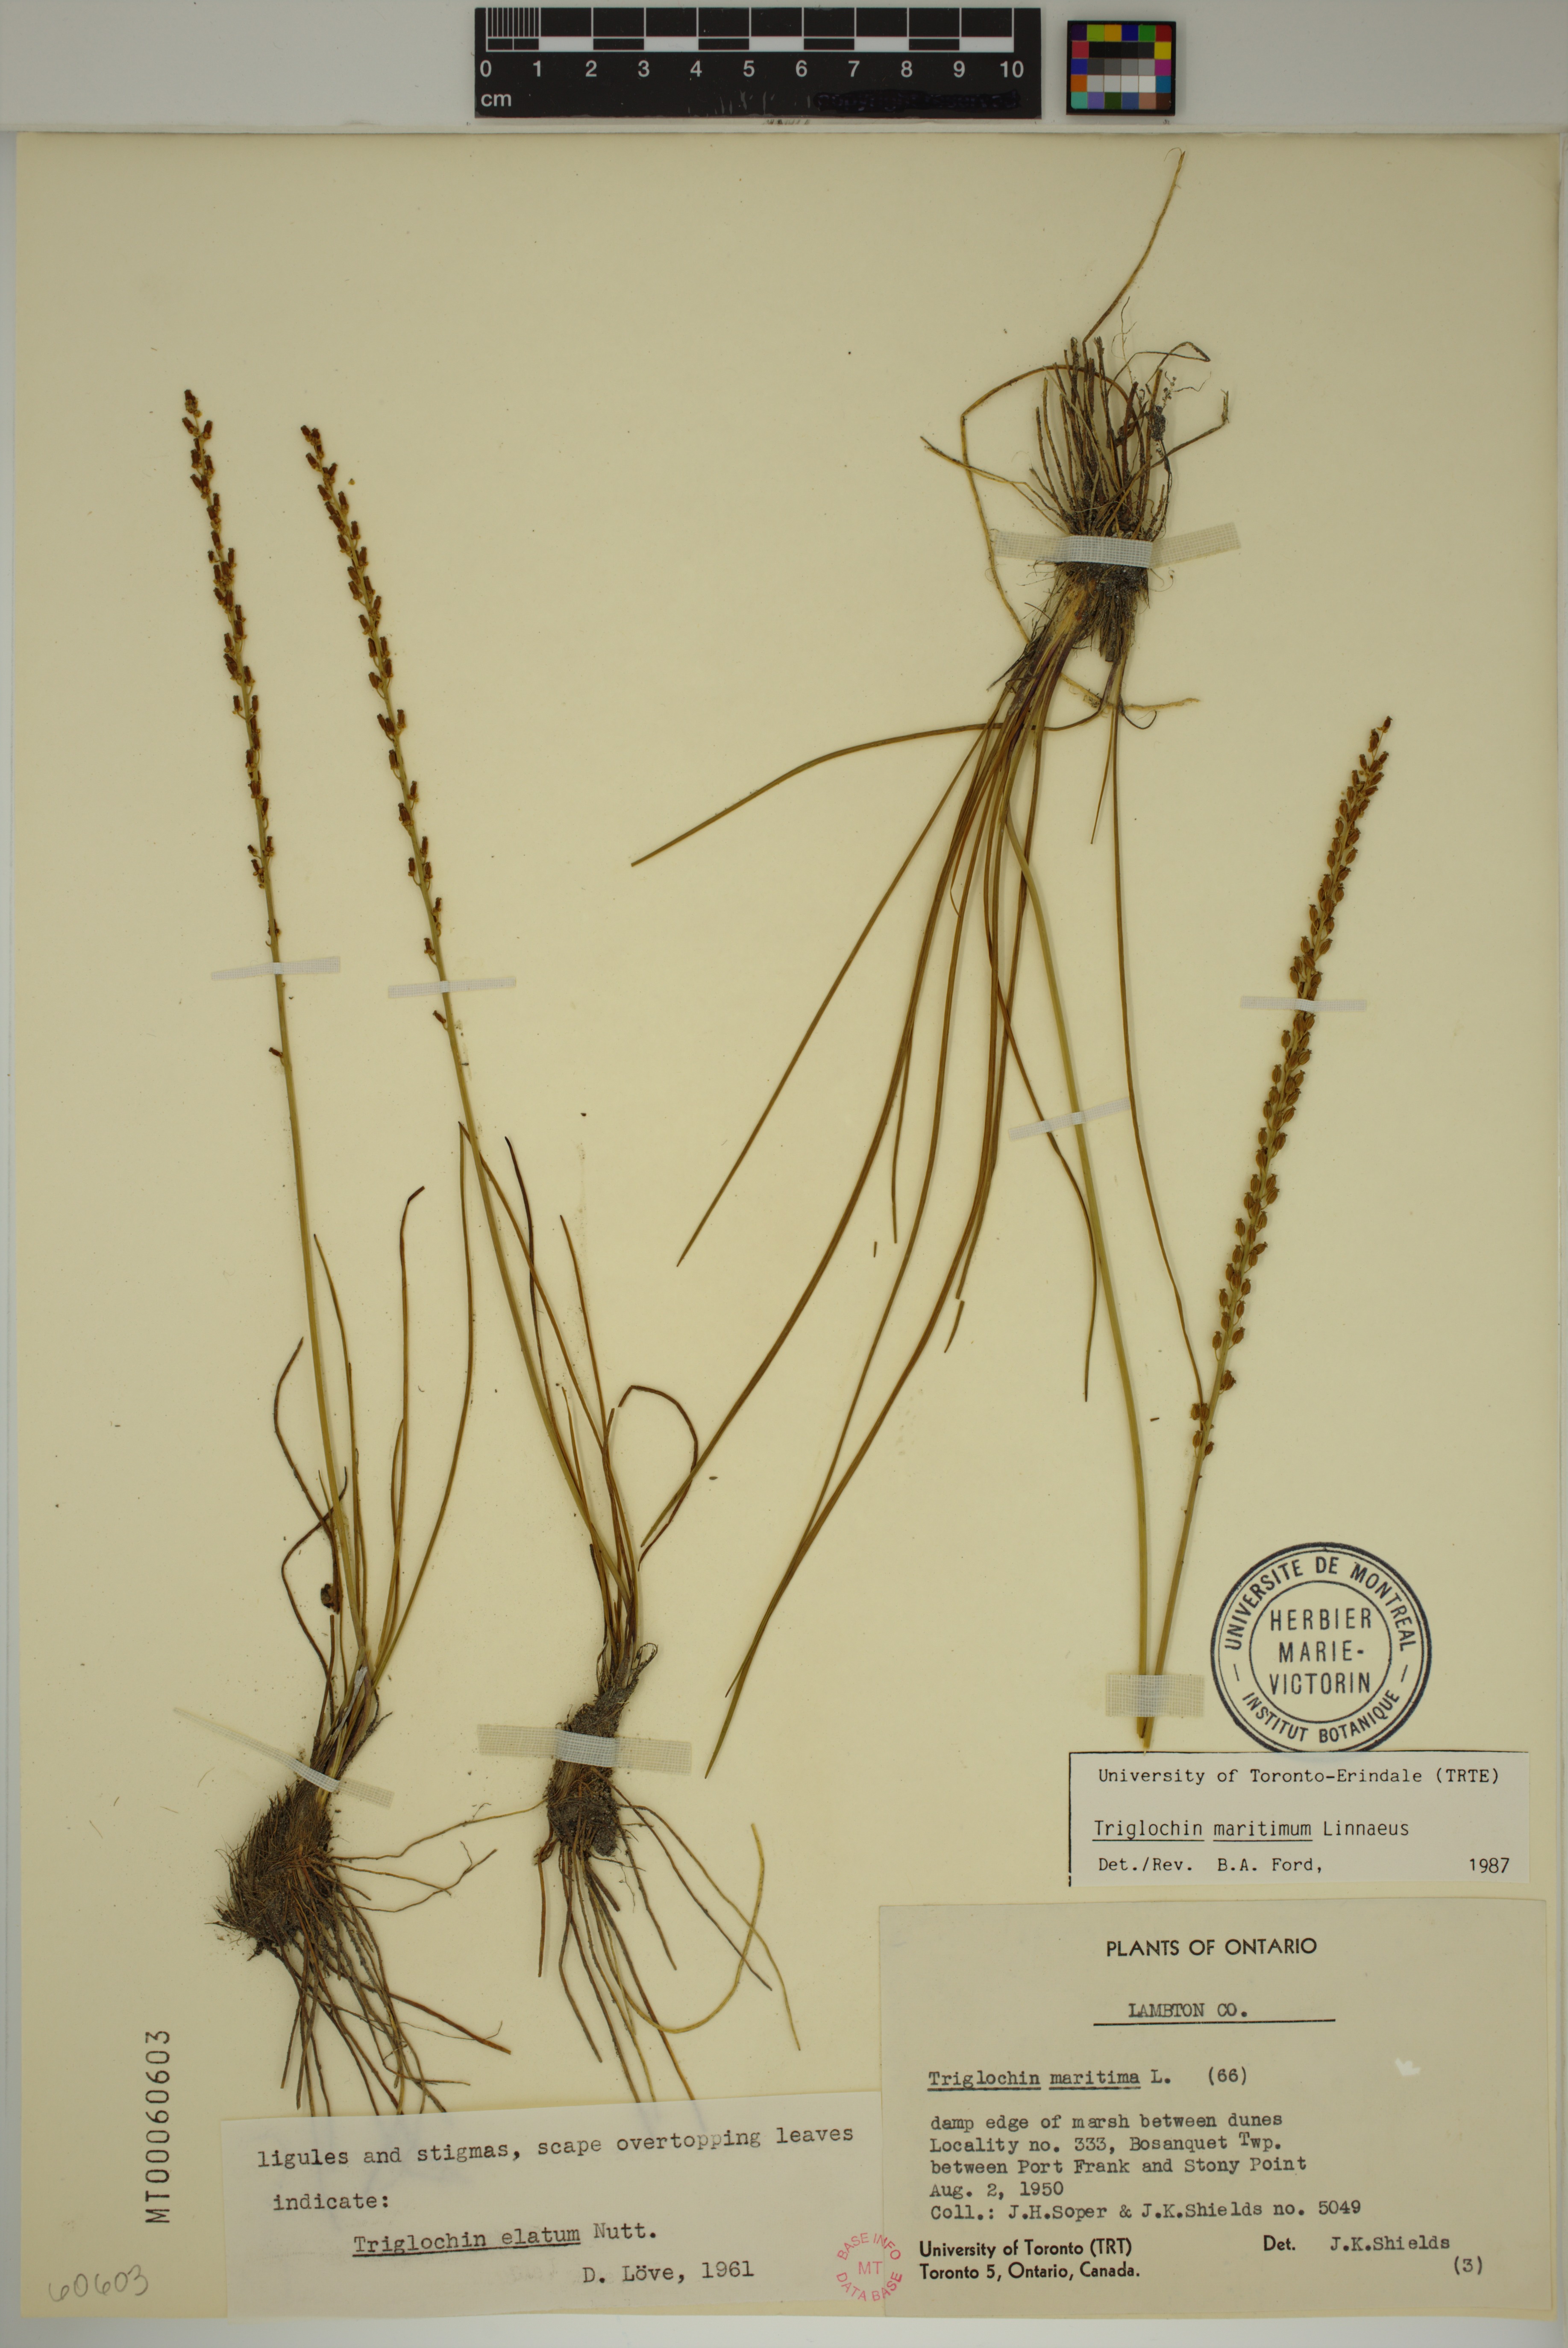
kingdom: Plantae
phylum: Tracheophyta
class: Liliopsida
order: Alismatales
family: Juncaginaceae
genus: Triglochin
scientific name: Triglochin maritima
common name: Sea arrowgrass
